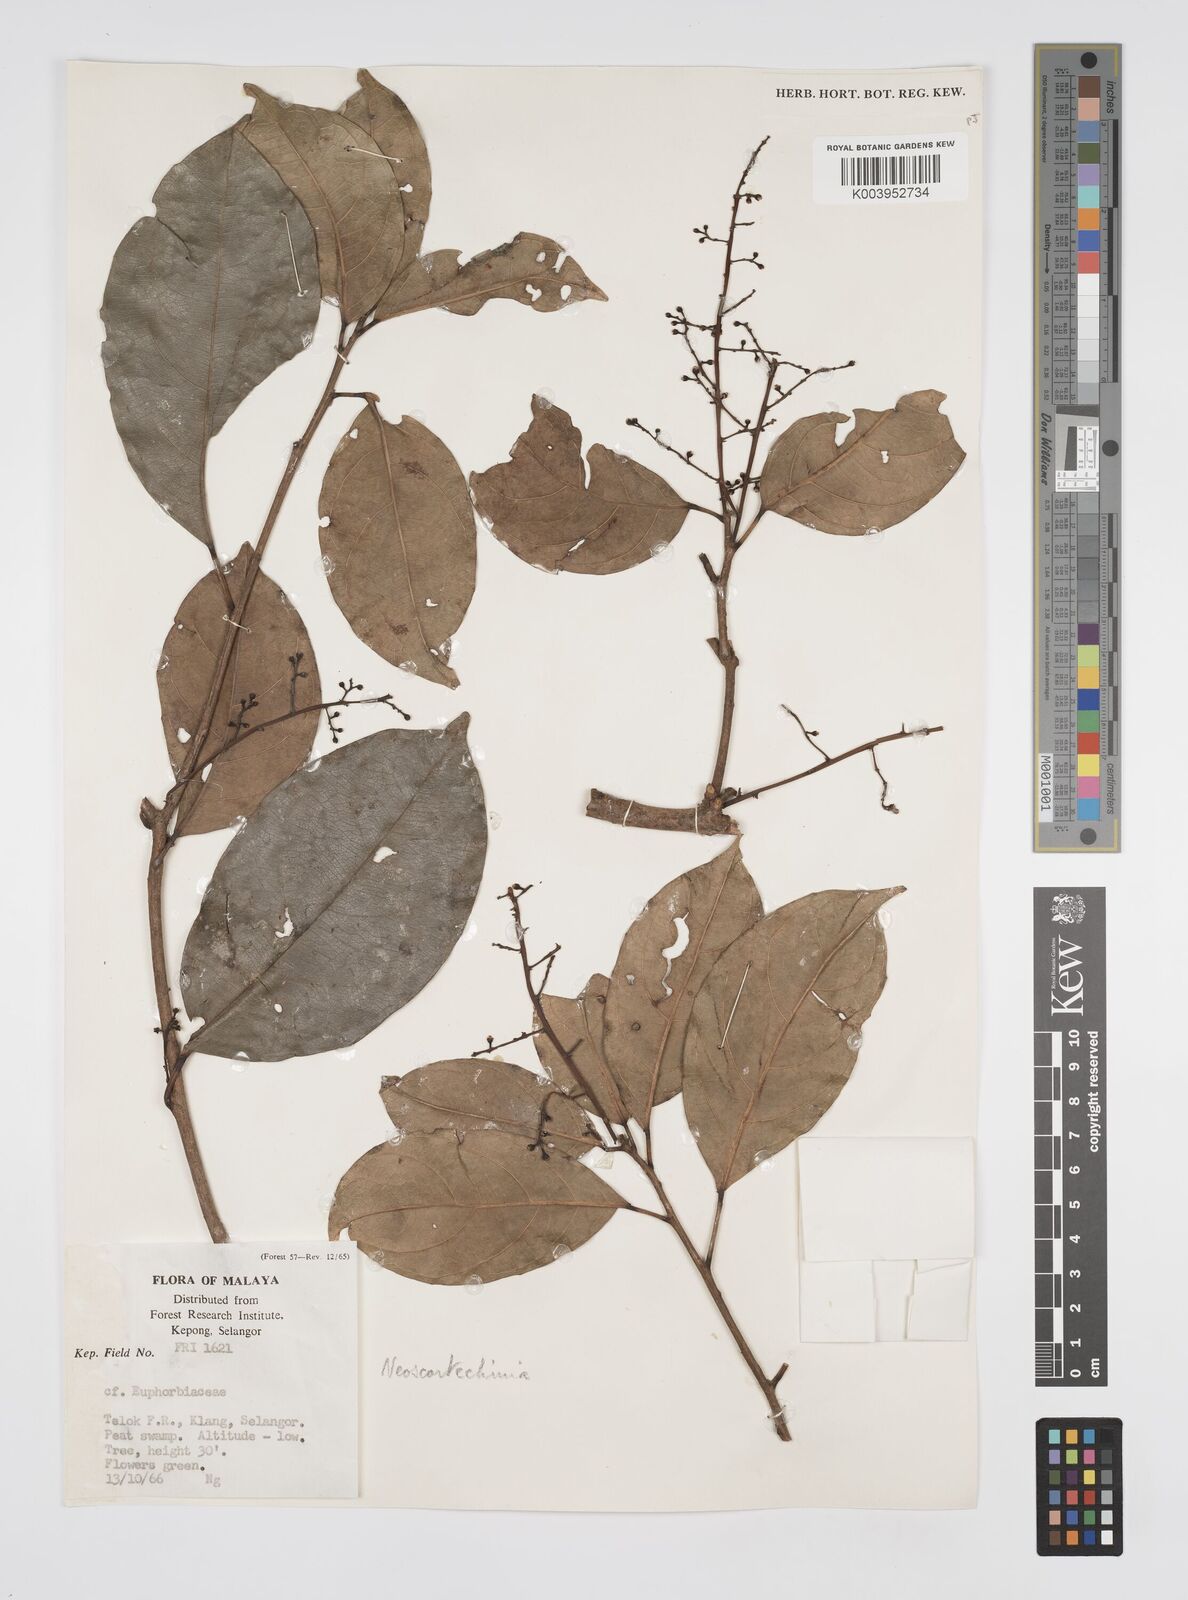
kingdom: Plantae
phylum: Tracheophyta
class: Magnoliopsida
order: Malpighiales
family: Euphorbiaceae
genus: Neoscortechinia
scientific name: Neoscortechinia philippinensis
